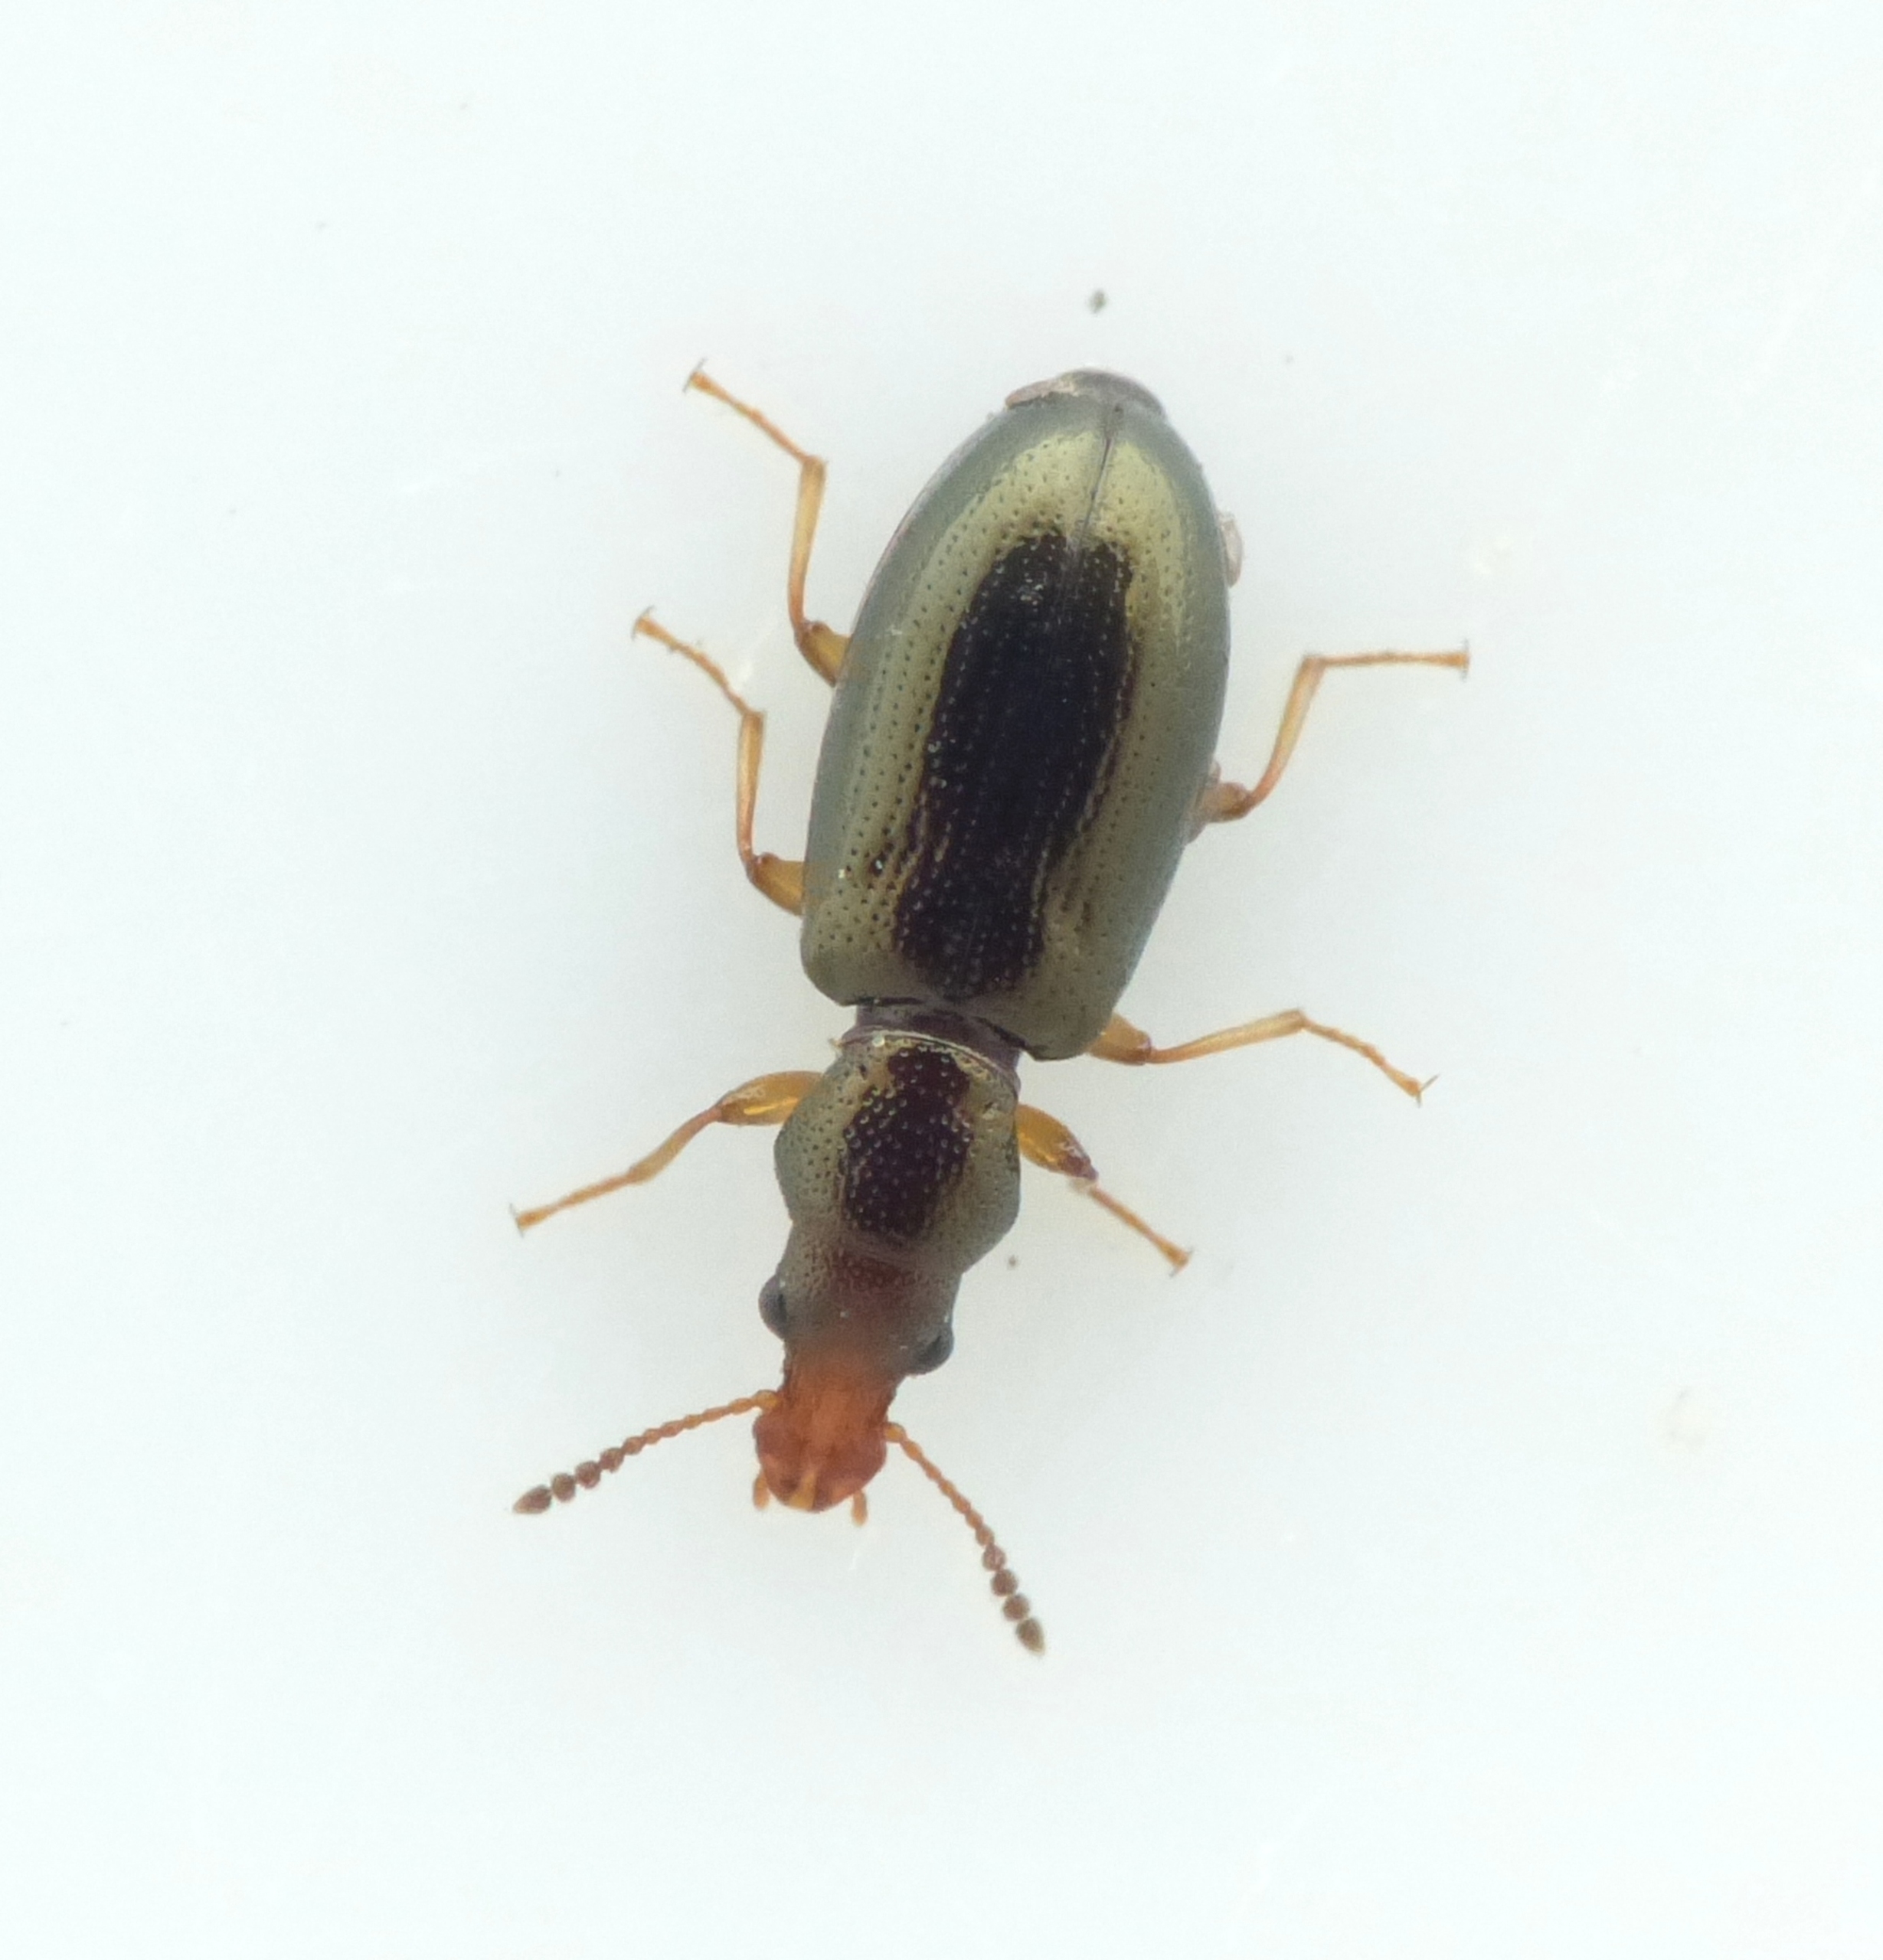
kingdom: Animalia
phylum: Arthropoda
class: Insecta
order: Coleoptera
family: Salpingidae
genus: Salpingus
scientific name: Salpingus planirostris
